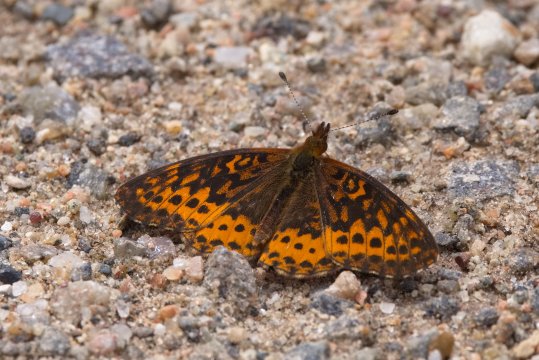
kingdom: Animalia
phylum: Arthropoda
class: Insecta
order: Lepidoptera
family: Nymphalidae
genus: Clossiana
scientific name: Clossiana toddi
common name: Meadow Fritillary
